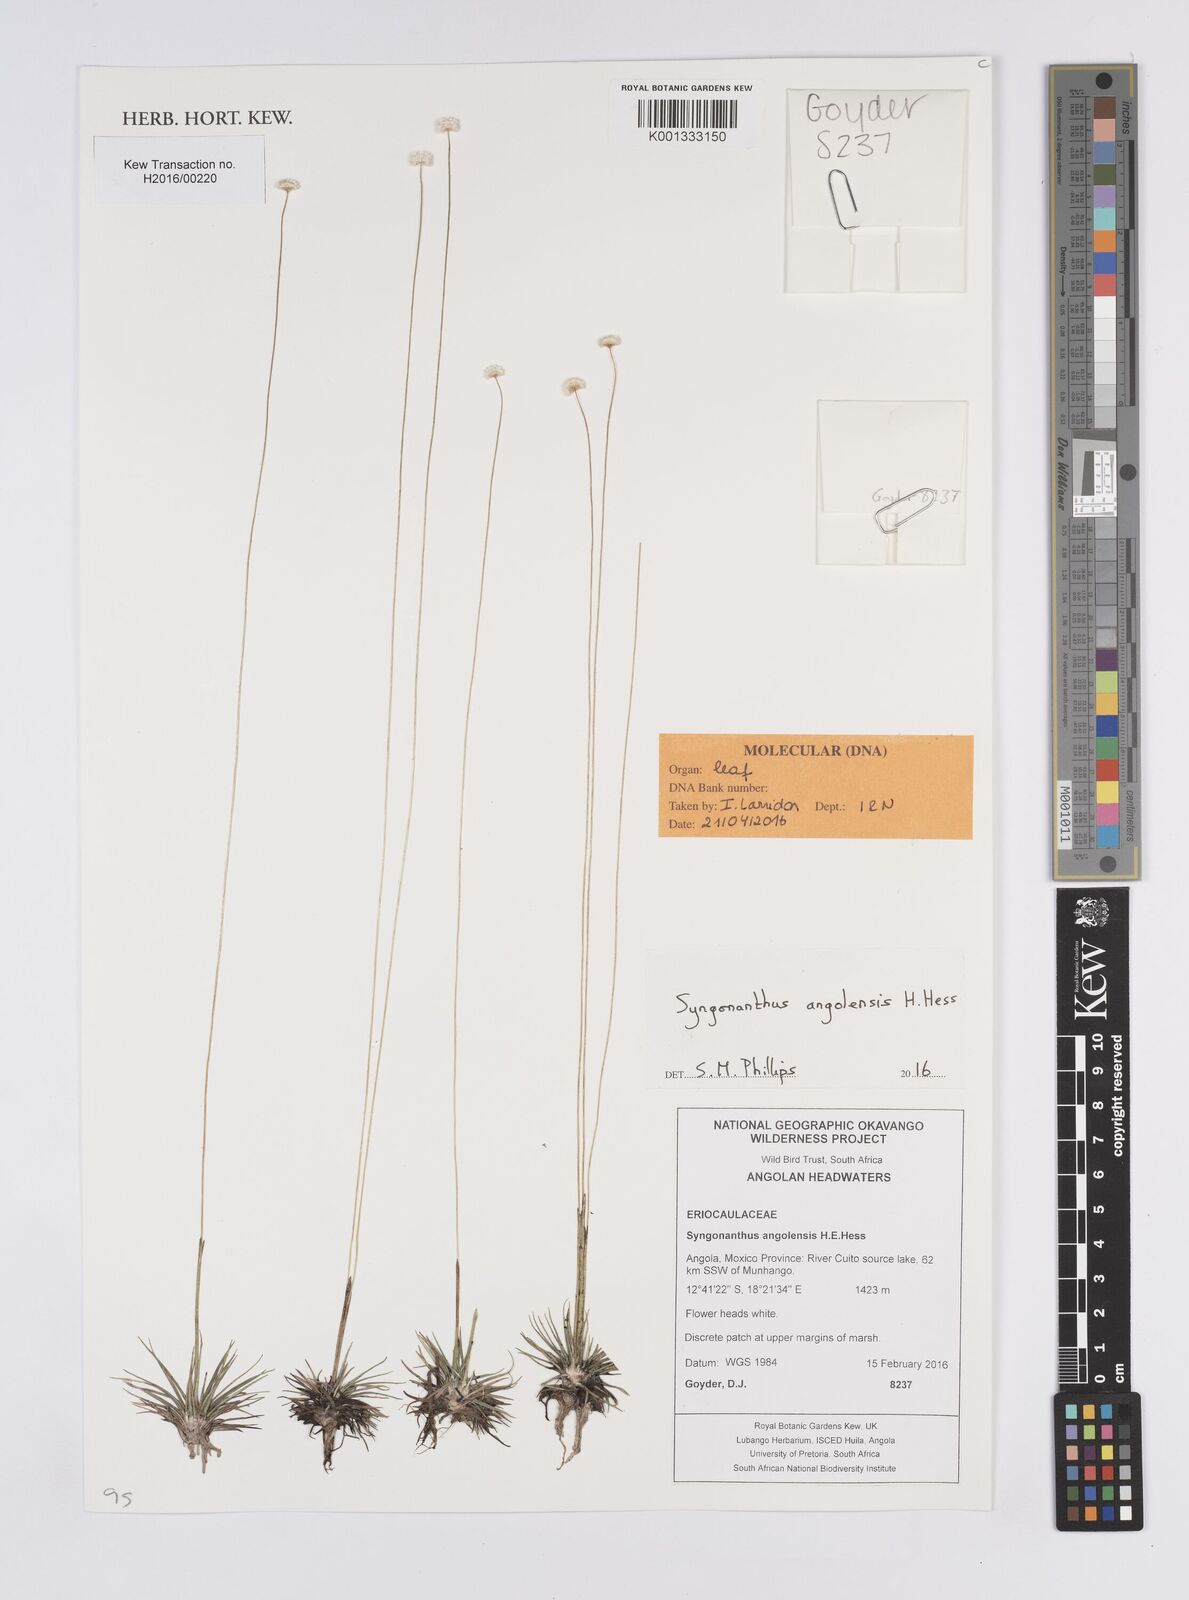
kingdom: Plantae
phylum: Tracheophyta
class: Liliopsida
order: Poales
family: Eriocaulaceae
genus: Syngonanthus
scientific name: Syngonanthus angolensis
